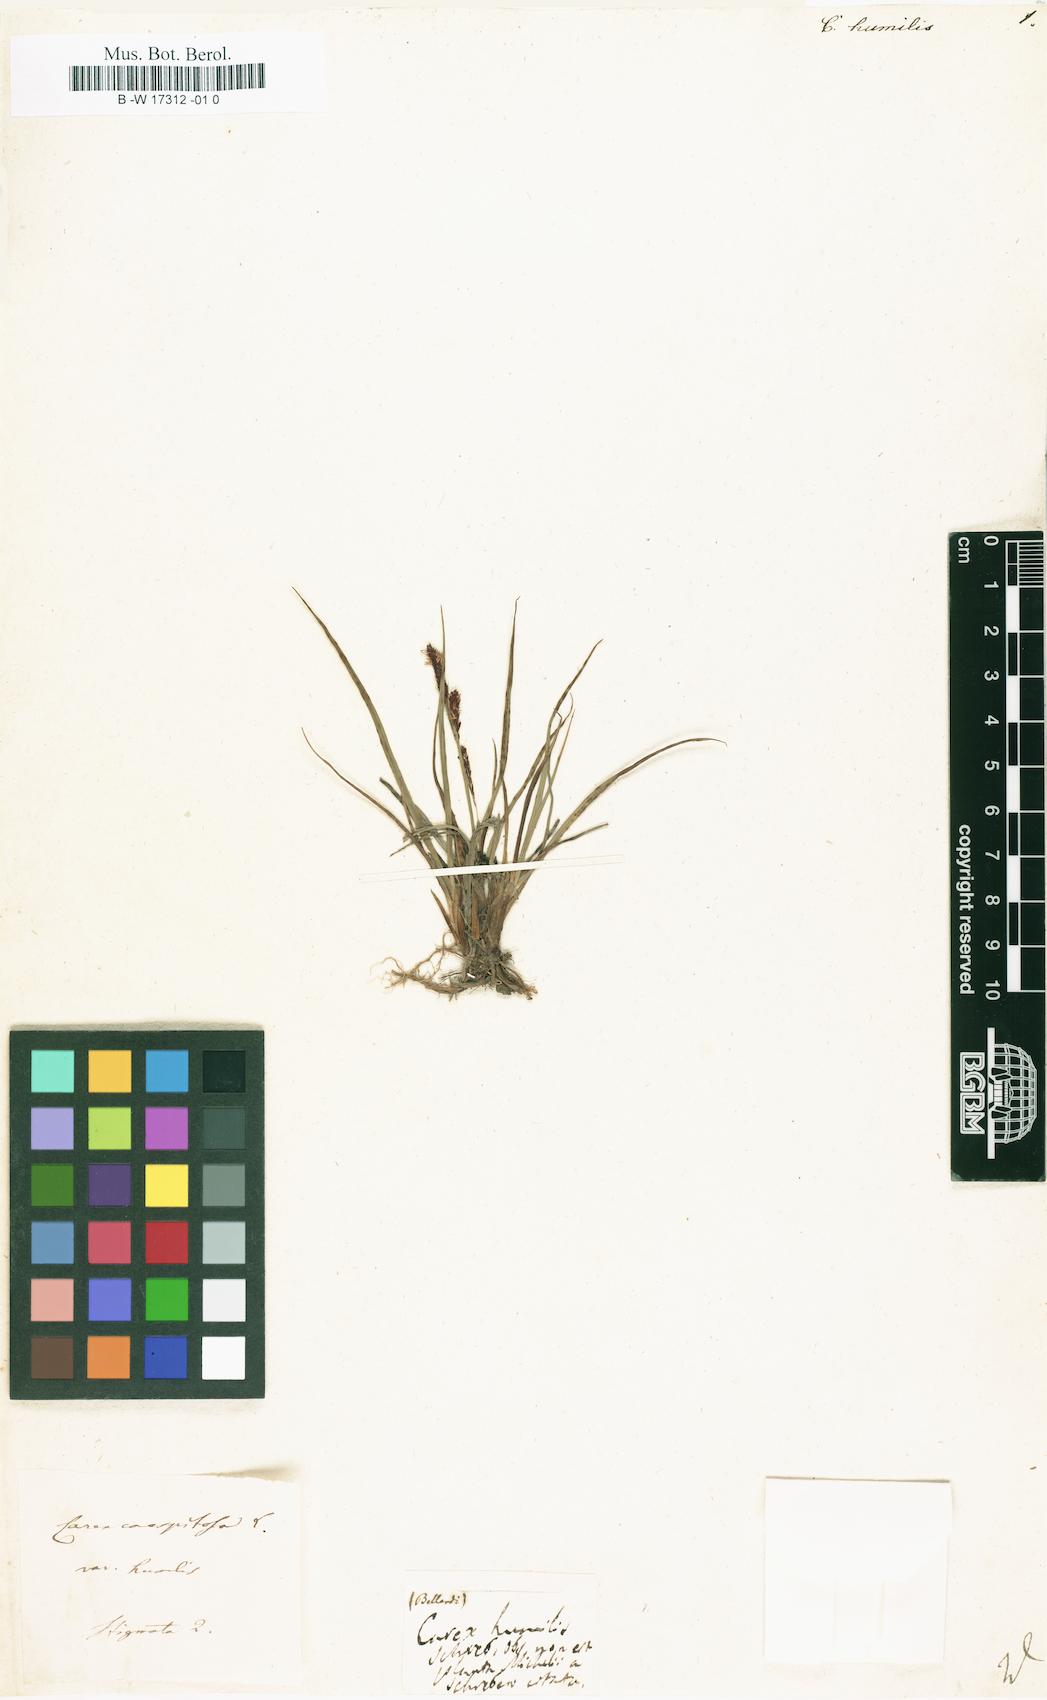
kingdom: Plantae
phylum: Tracheophyta
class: Liliopsida
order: Poales
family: Cyperaceae
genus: Carex
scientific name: Carex humilis
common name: Dwarf sedge
